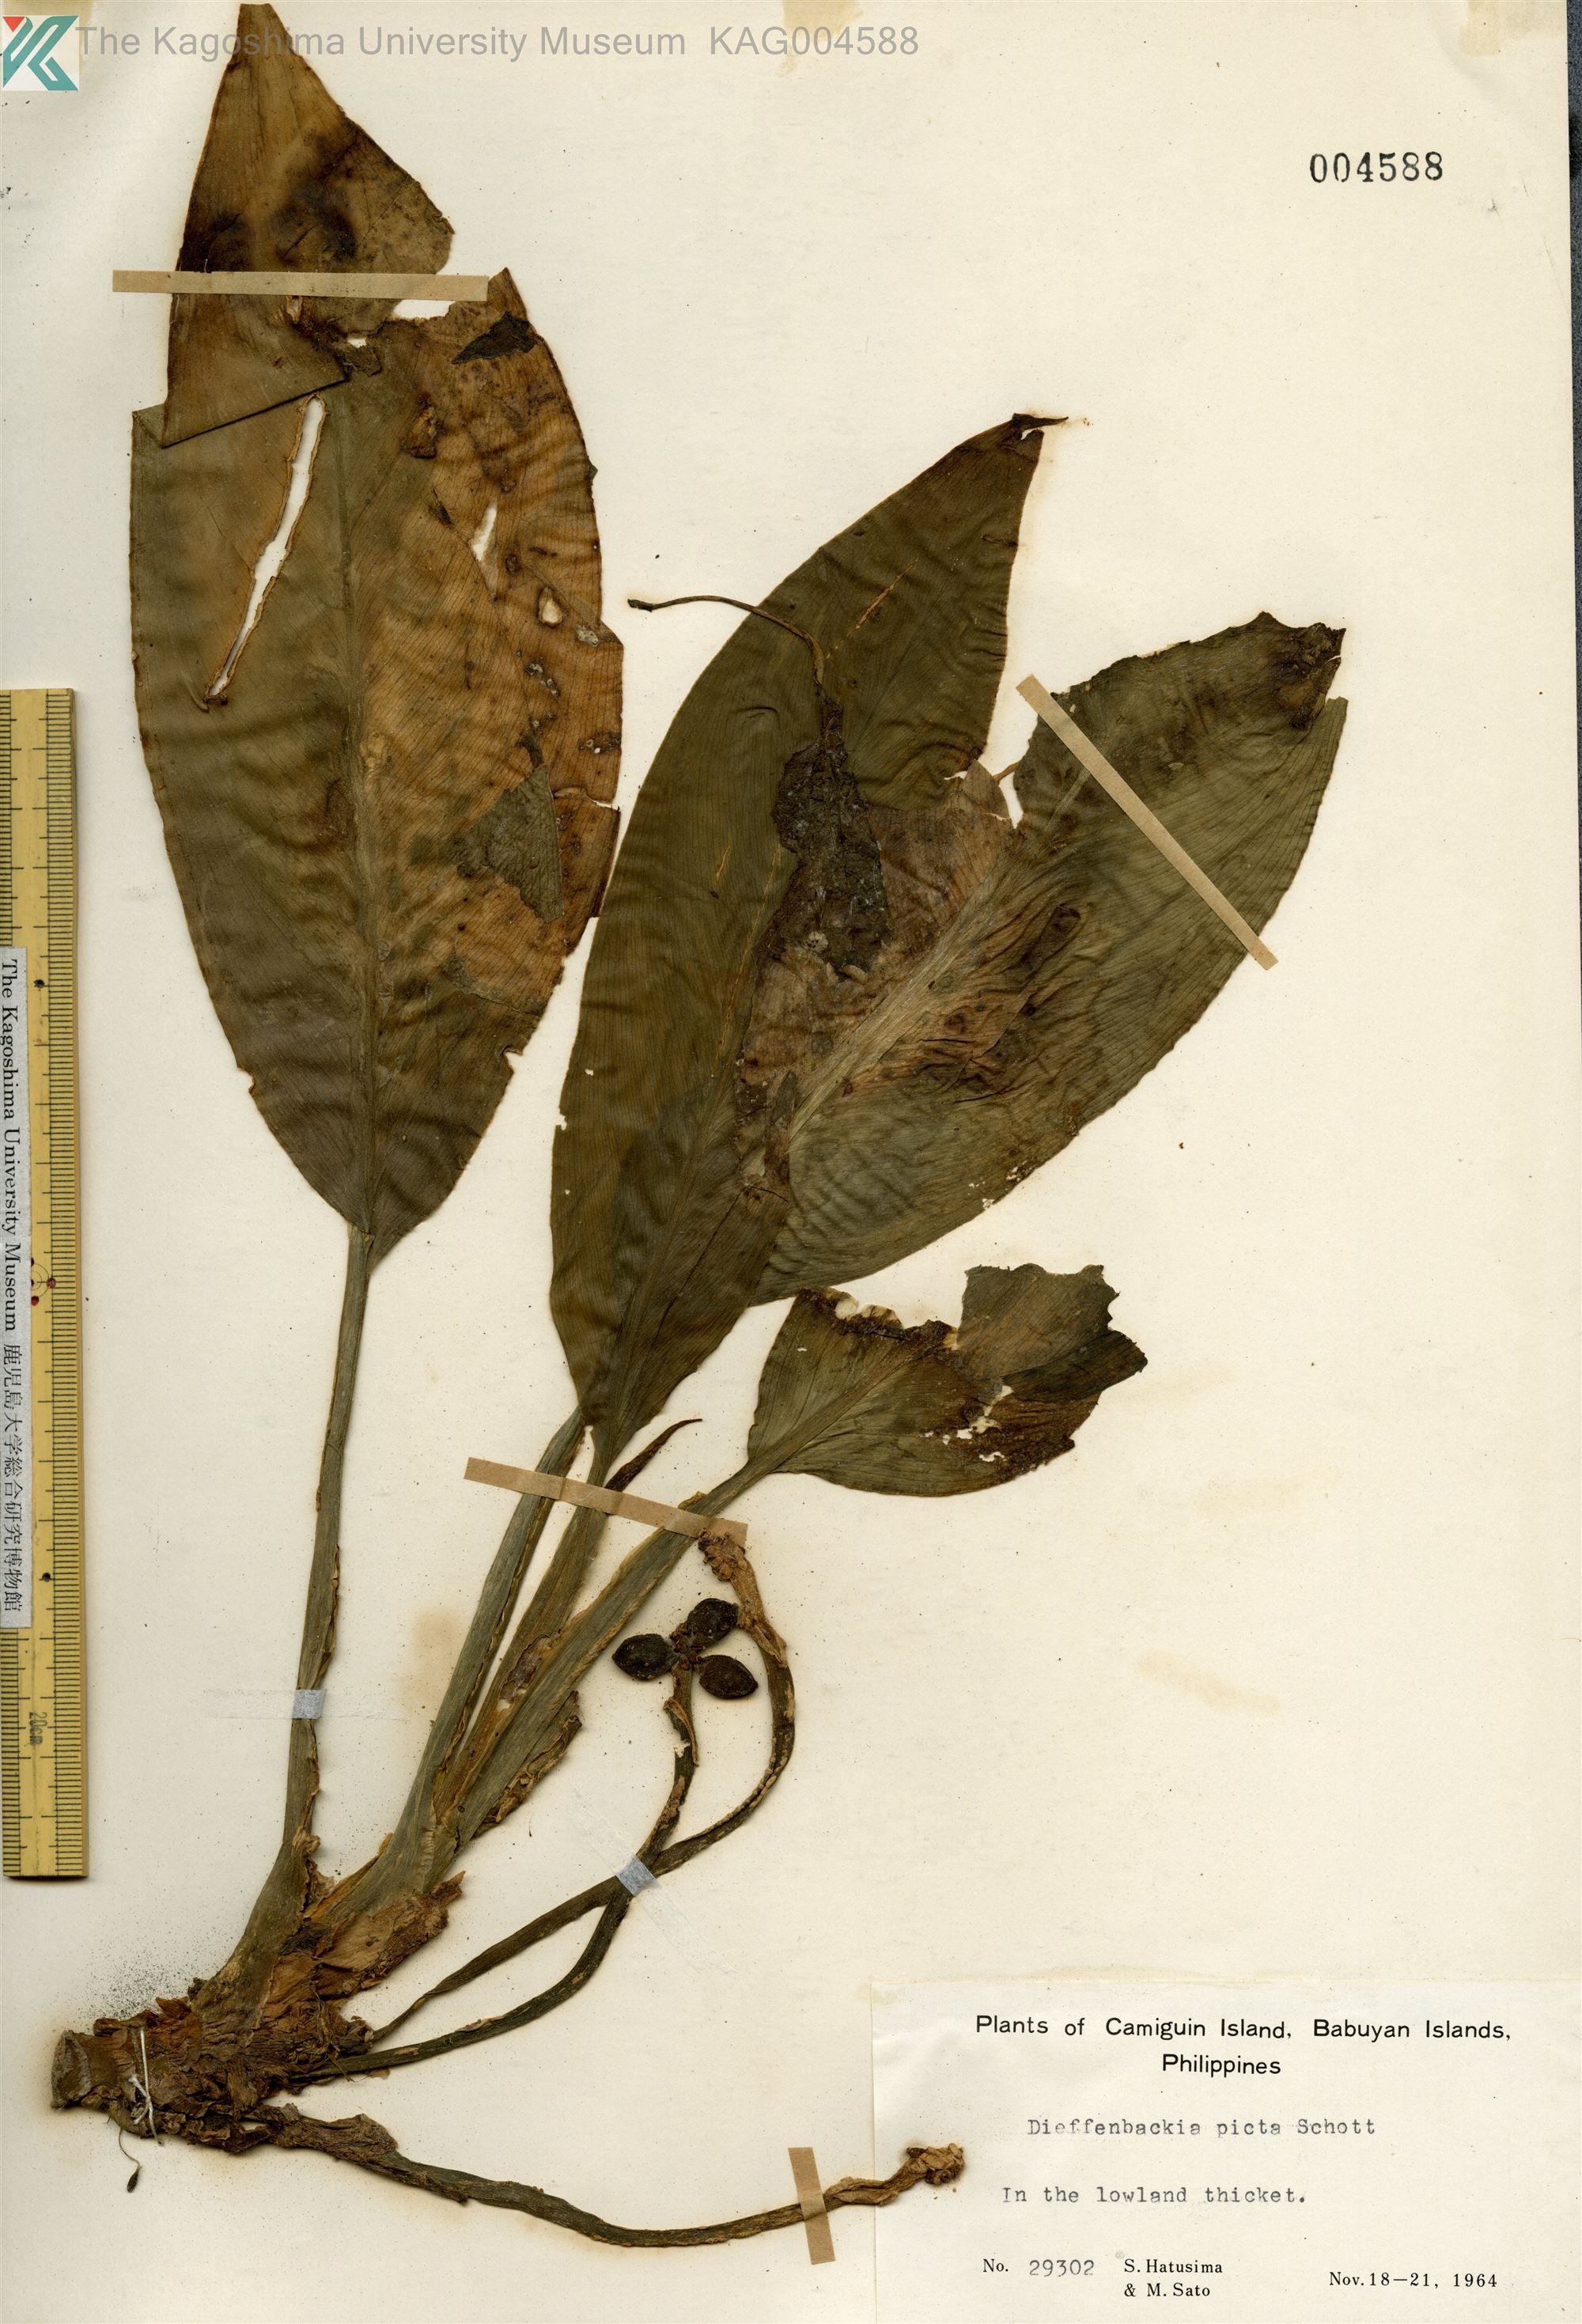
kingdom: Plantae
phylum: Tracheophyta
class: Liliopsida
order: Alismatales
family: Araceae
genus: Dieffenbachia
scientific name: Dieffenbachia seguine
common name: Dumbcane
